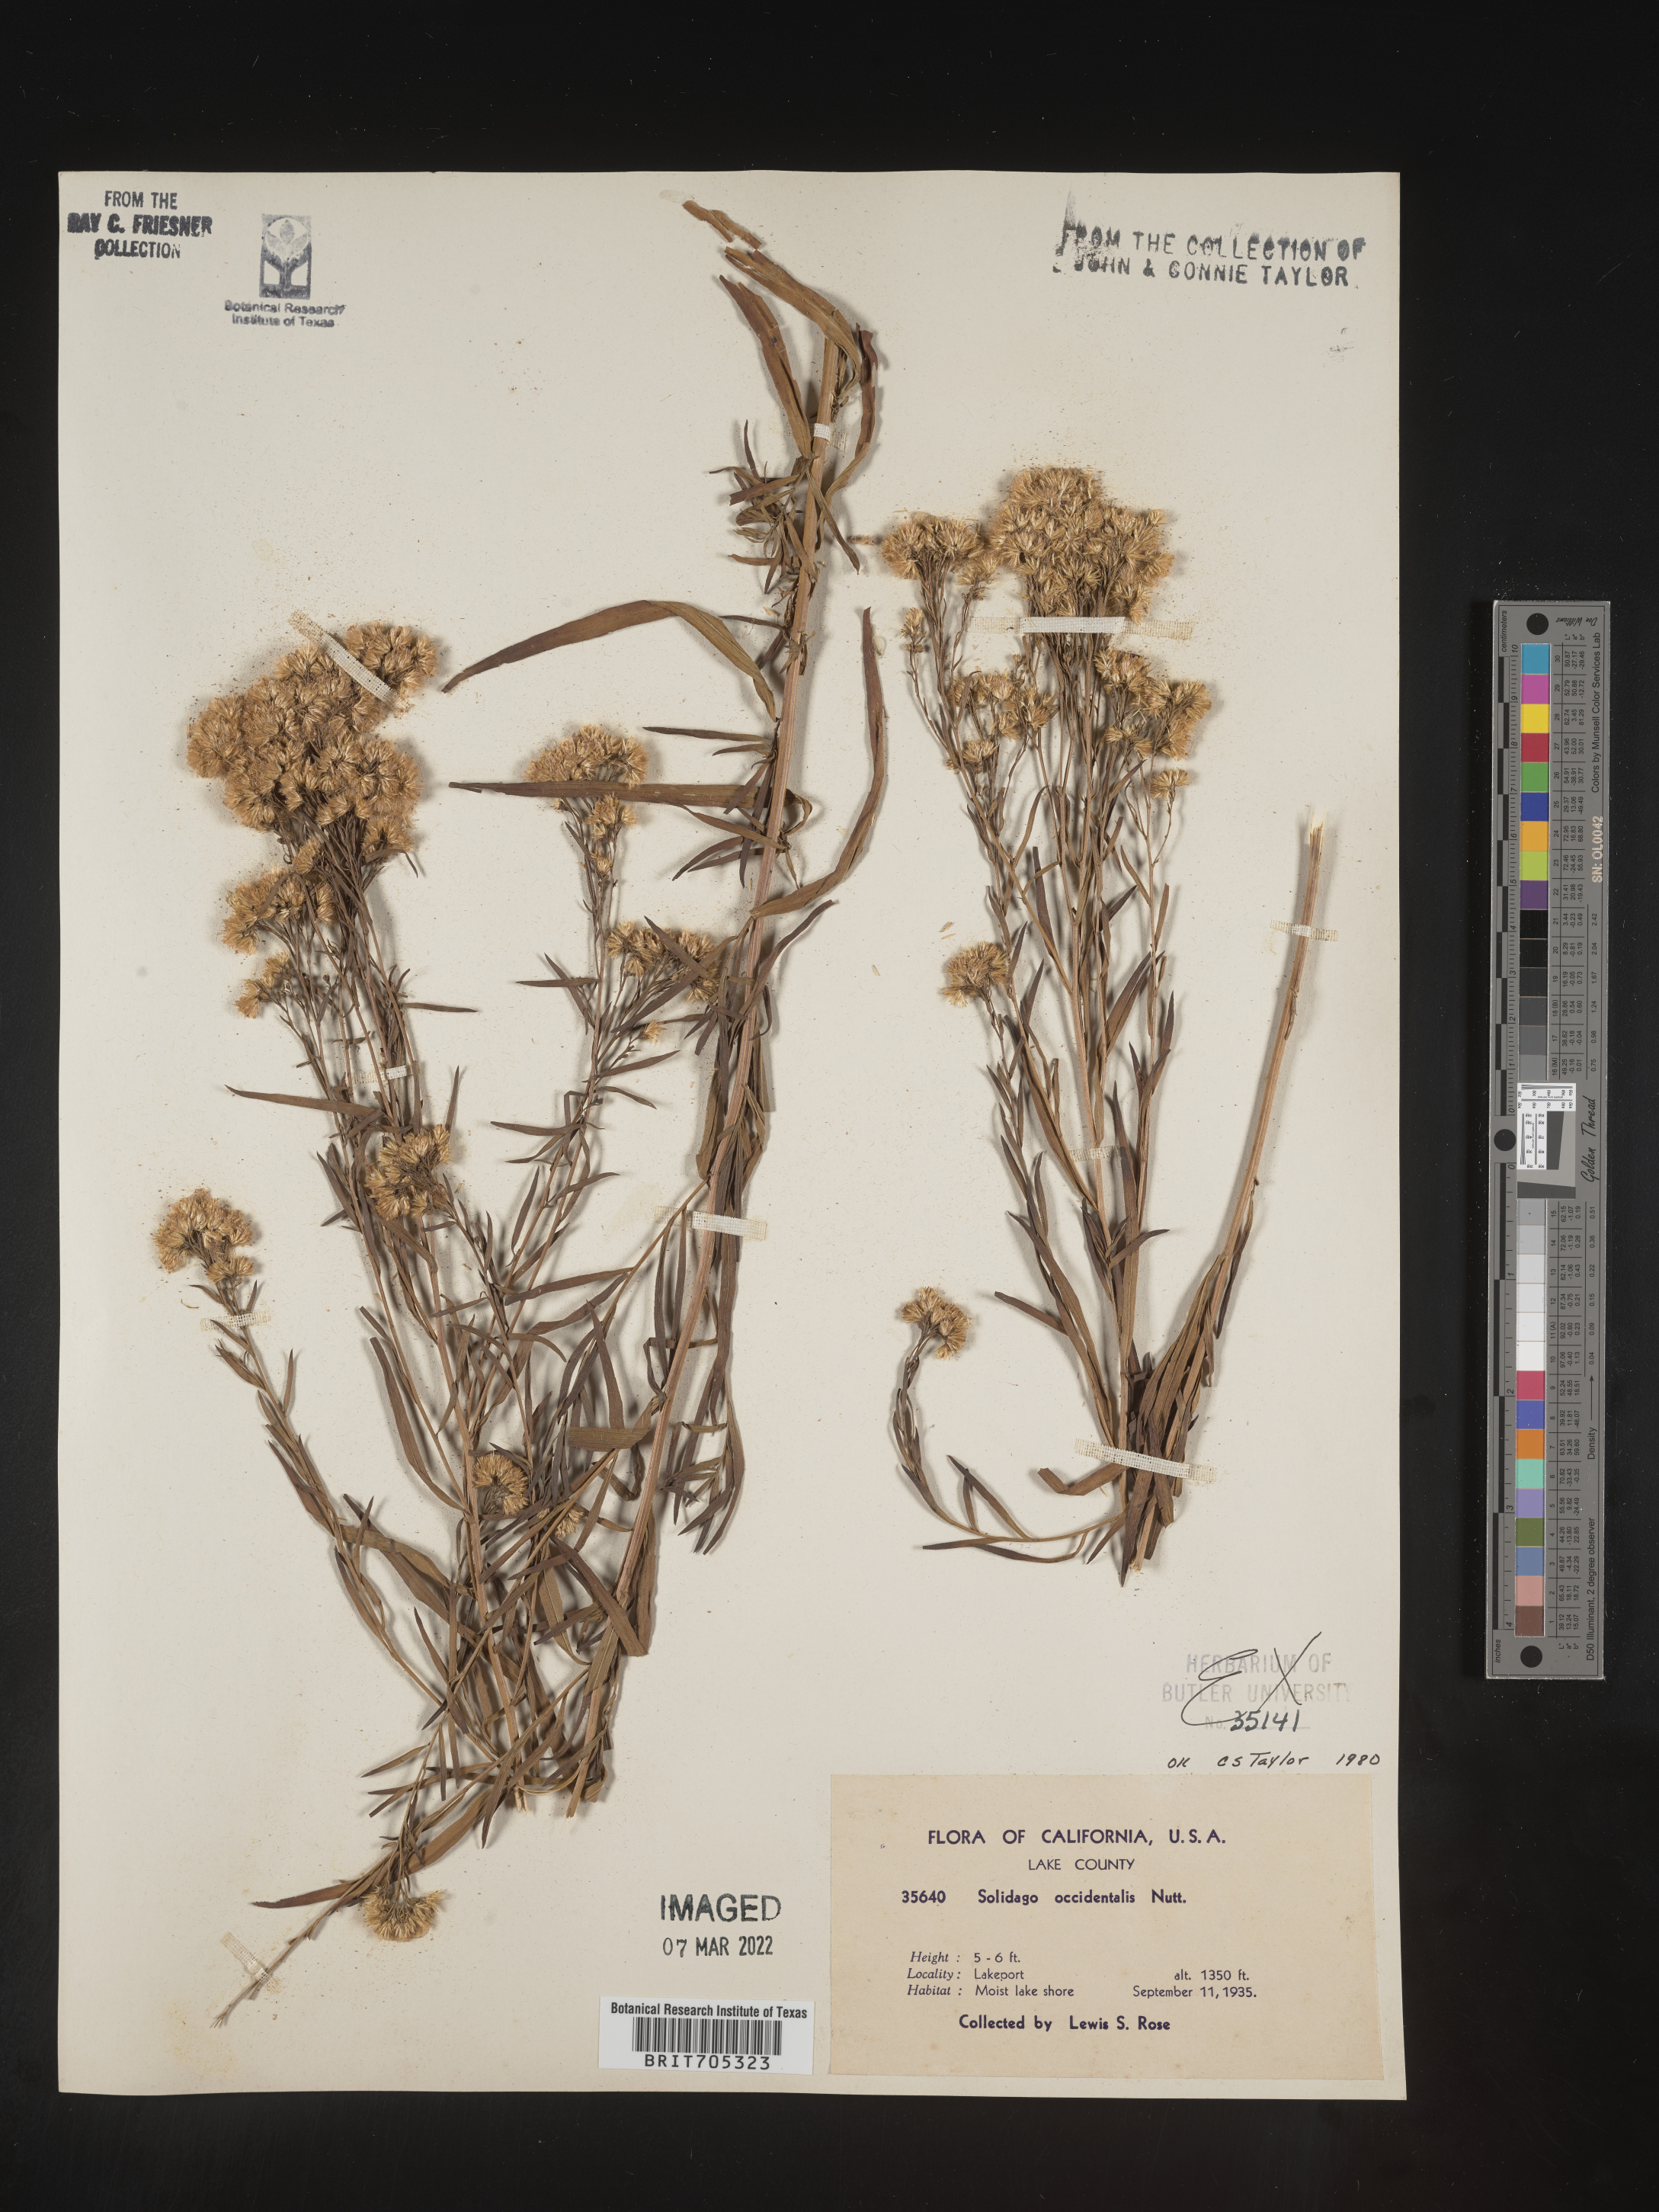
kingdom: Plantae
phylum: Tracheophyta
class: Magnoliopsida
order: Asterales
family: Asteraceae
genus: Euthamia
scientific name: Euthamia occidentalis
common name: Western goldentop
